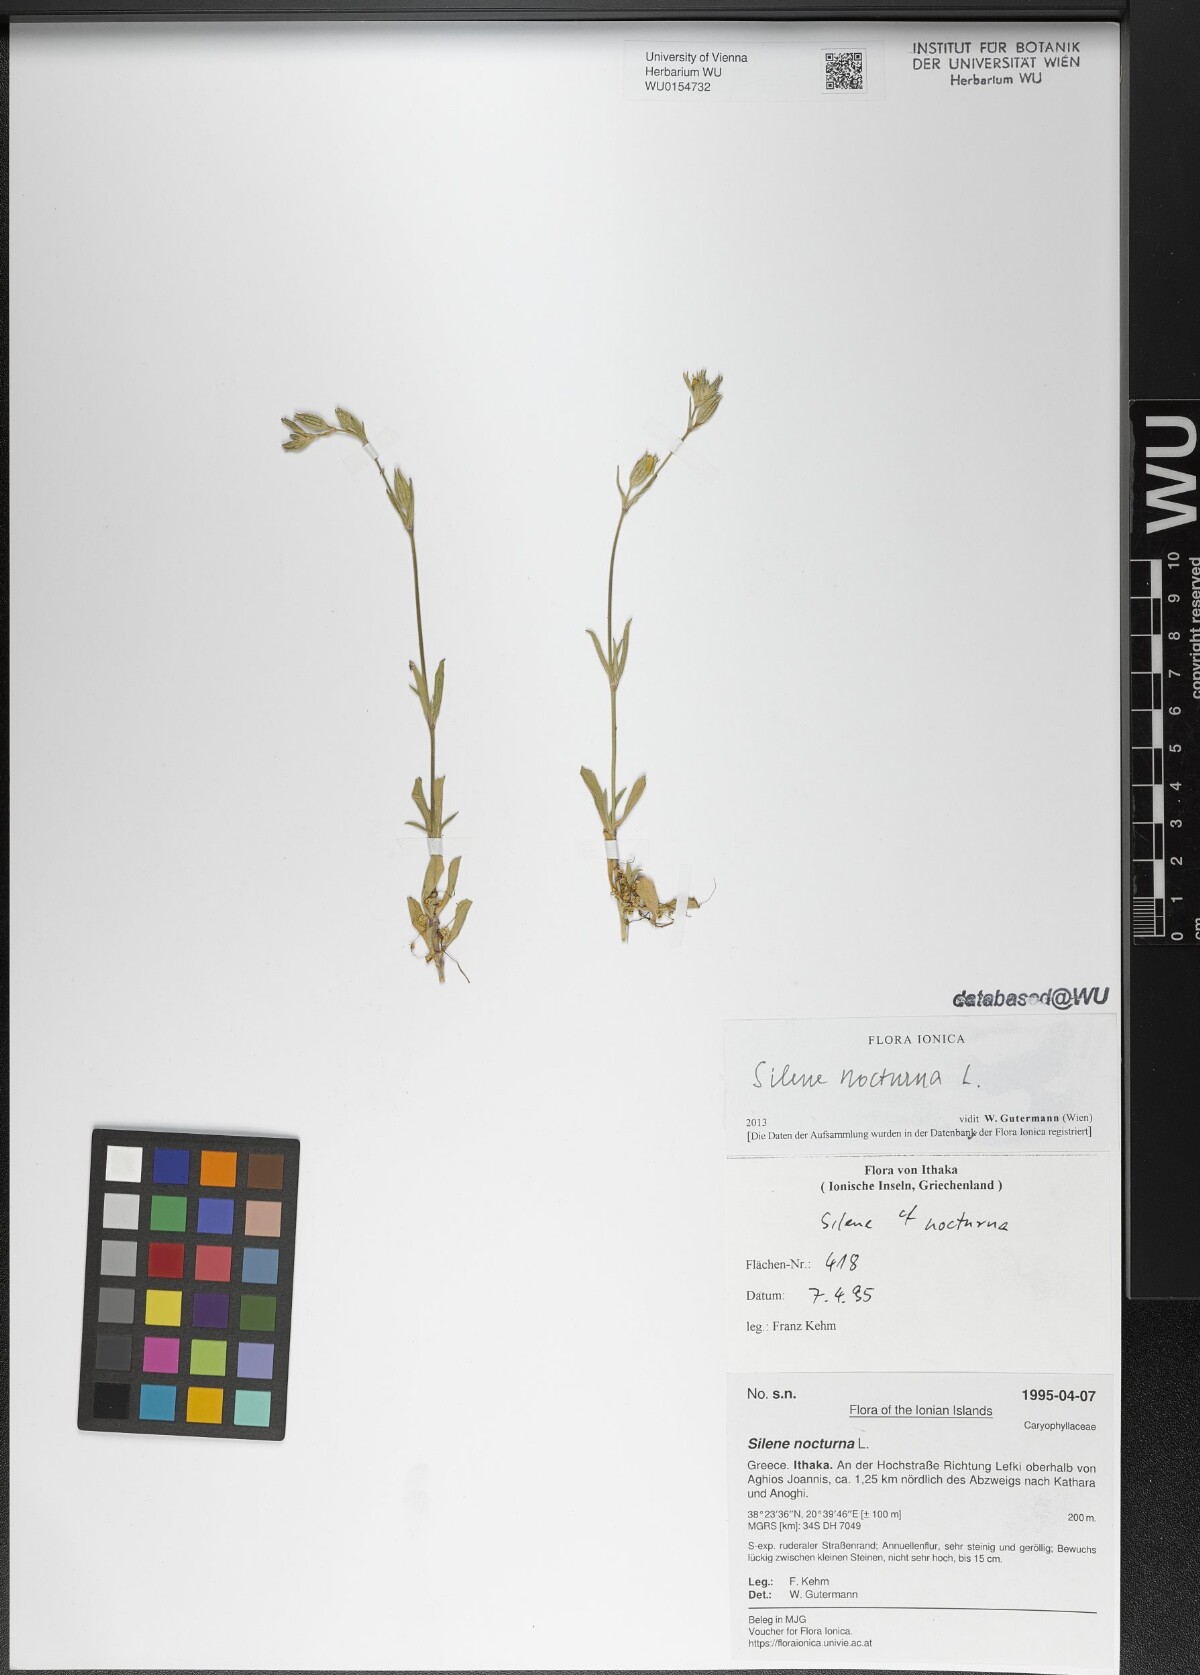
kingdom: Plantae
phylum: Tracheophyta
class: Magnoliopsida
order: Caryophyllales
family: Caryophyllaceae
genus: Silene
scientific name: Silene nocturna
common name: Mediterranean catchfly
